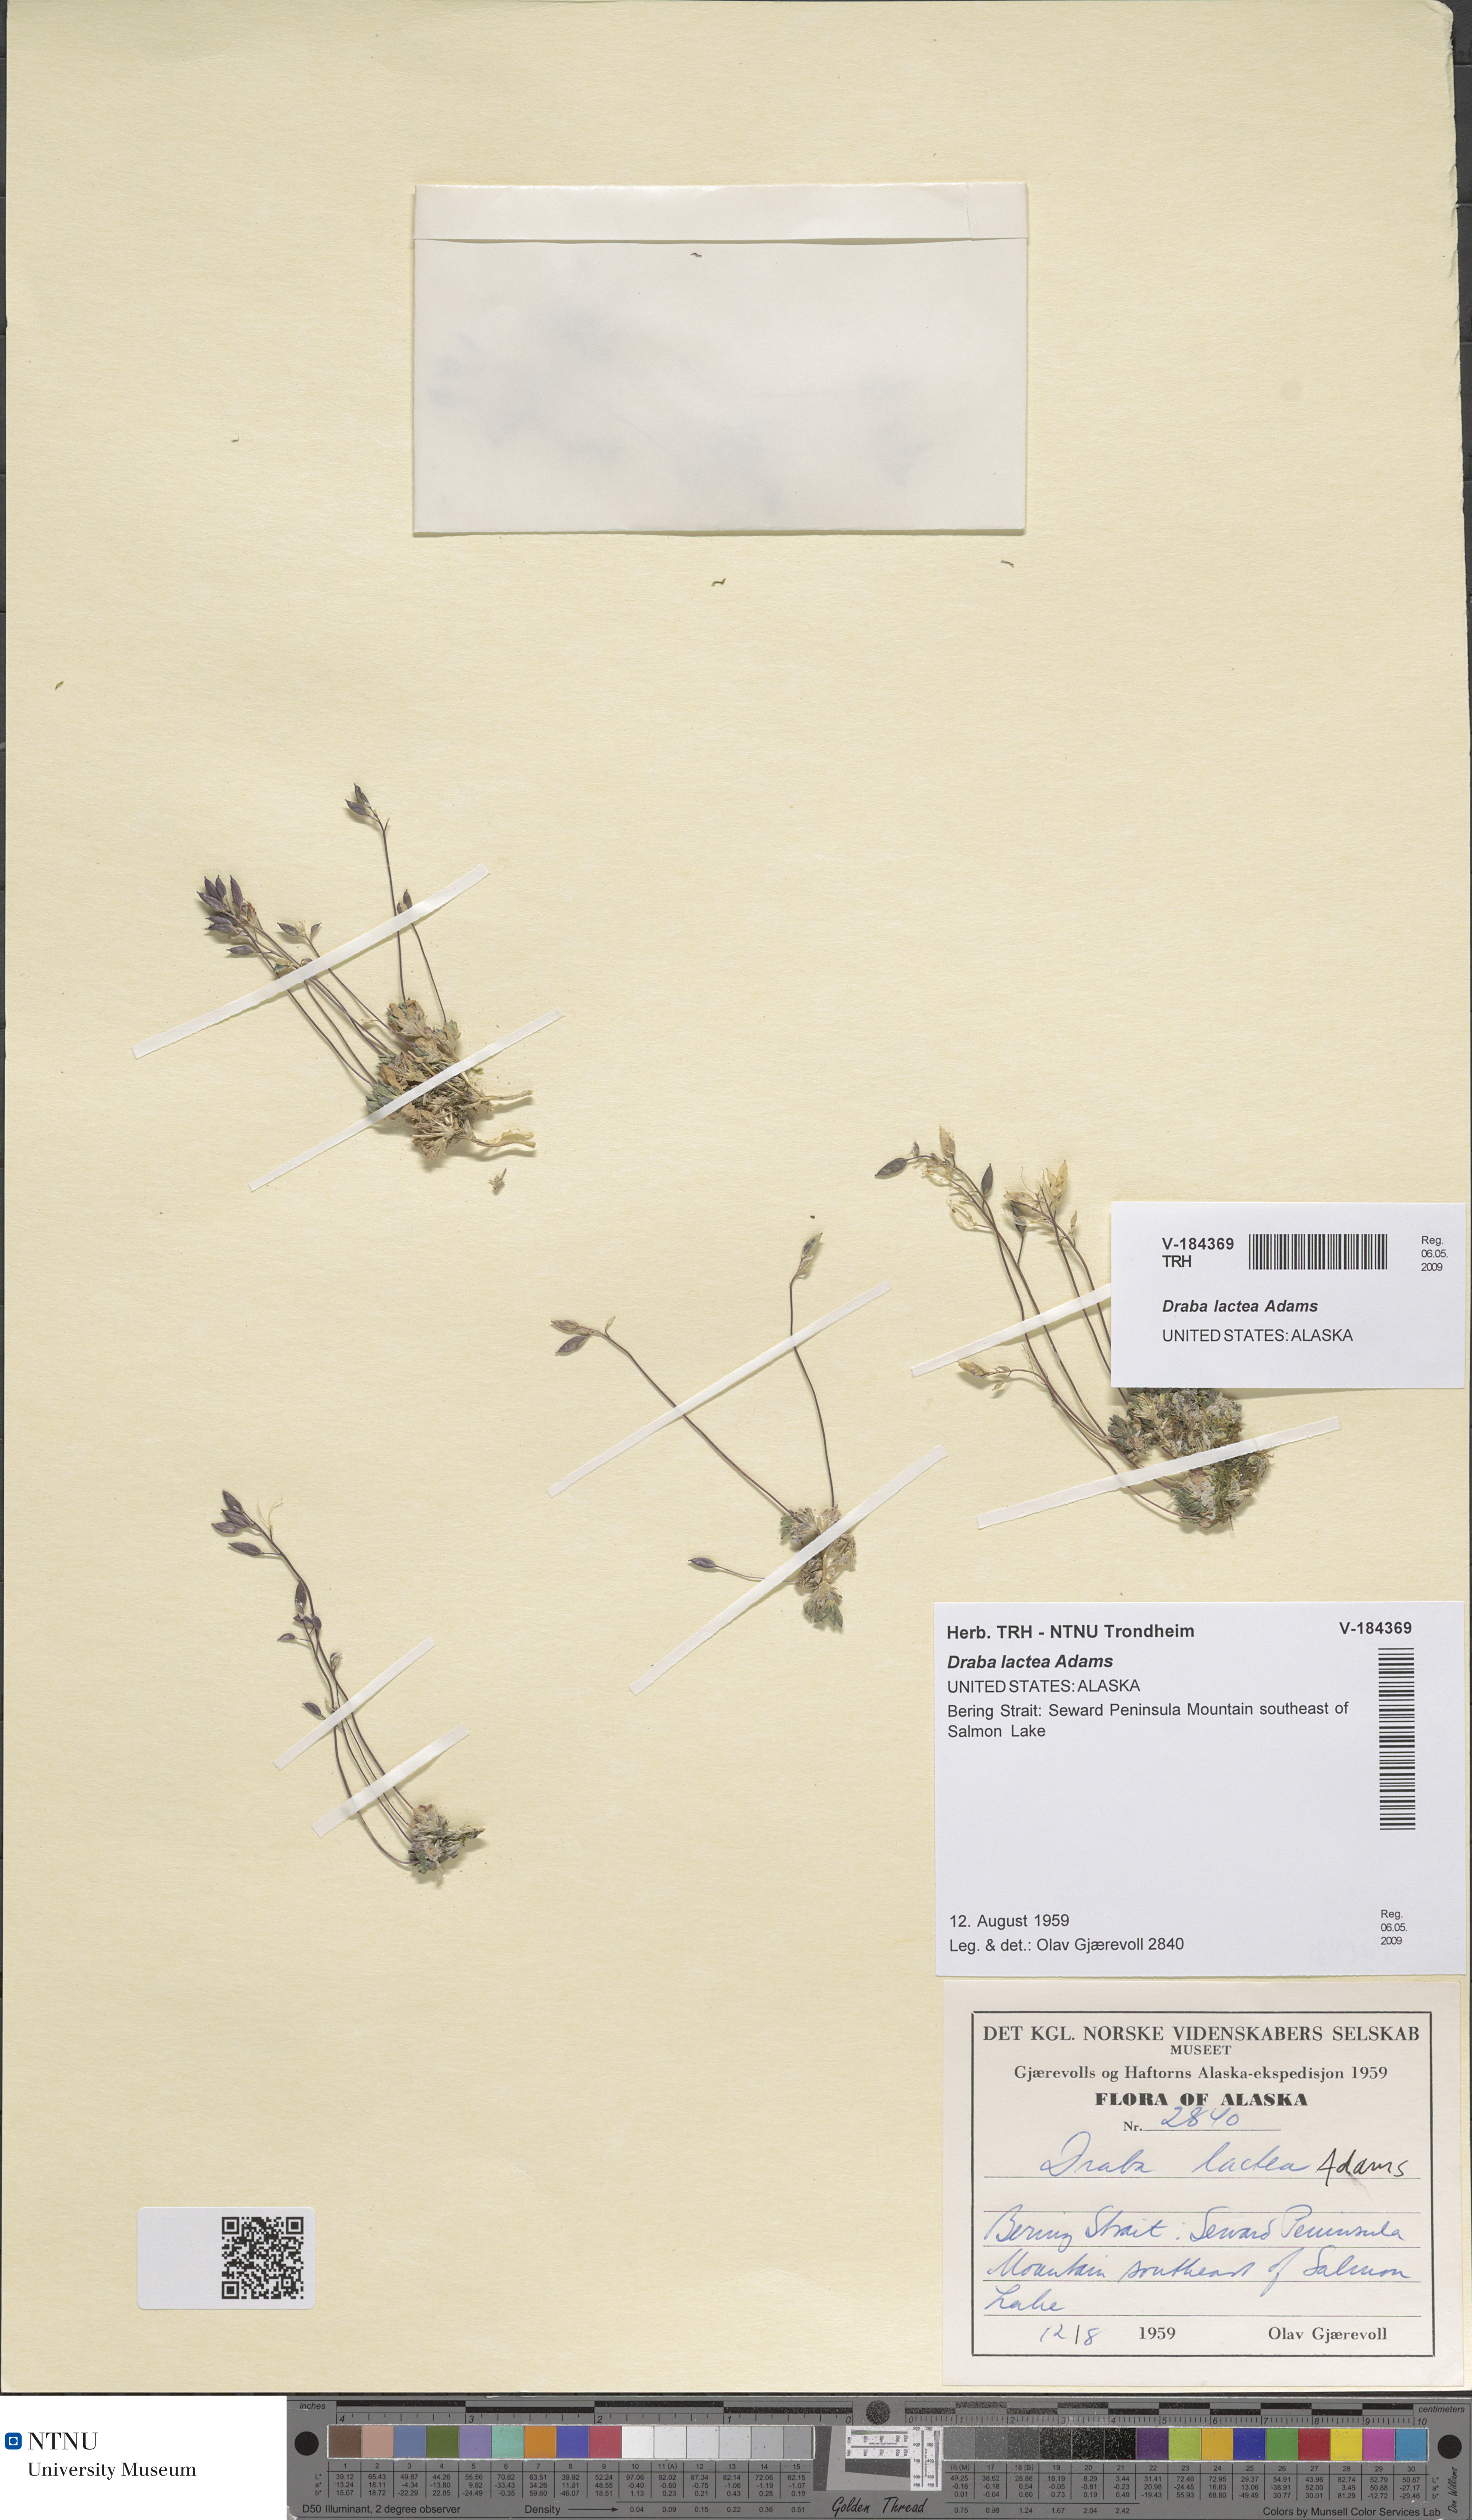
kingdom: Plantae
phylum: Tracheophyta
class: Magnoliopsida
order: Brassicales
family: Brassicaceae
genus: Draba
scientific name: Draba lactea
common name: Milky draba
